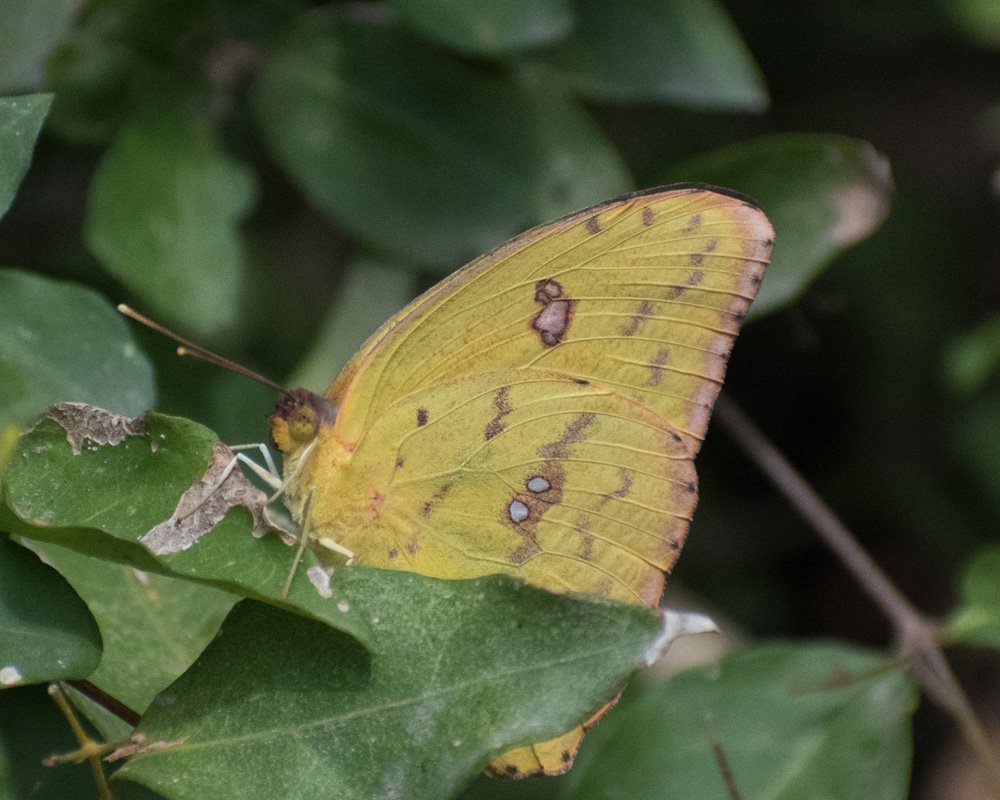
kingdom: Animalia
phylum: Arthropoda
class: Insecta
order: Lepidoptera
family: Pieridae
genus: Phoebis
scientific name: Phoebis sennae
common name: Cloudless Sulphur
